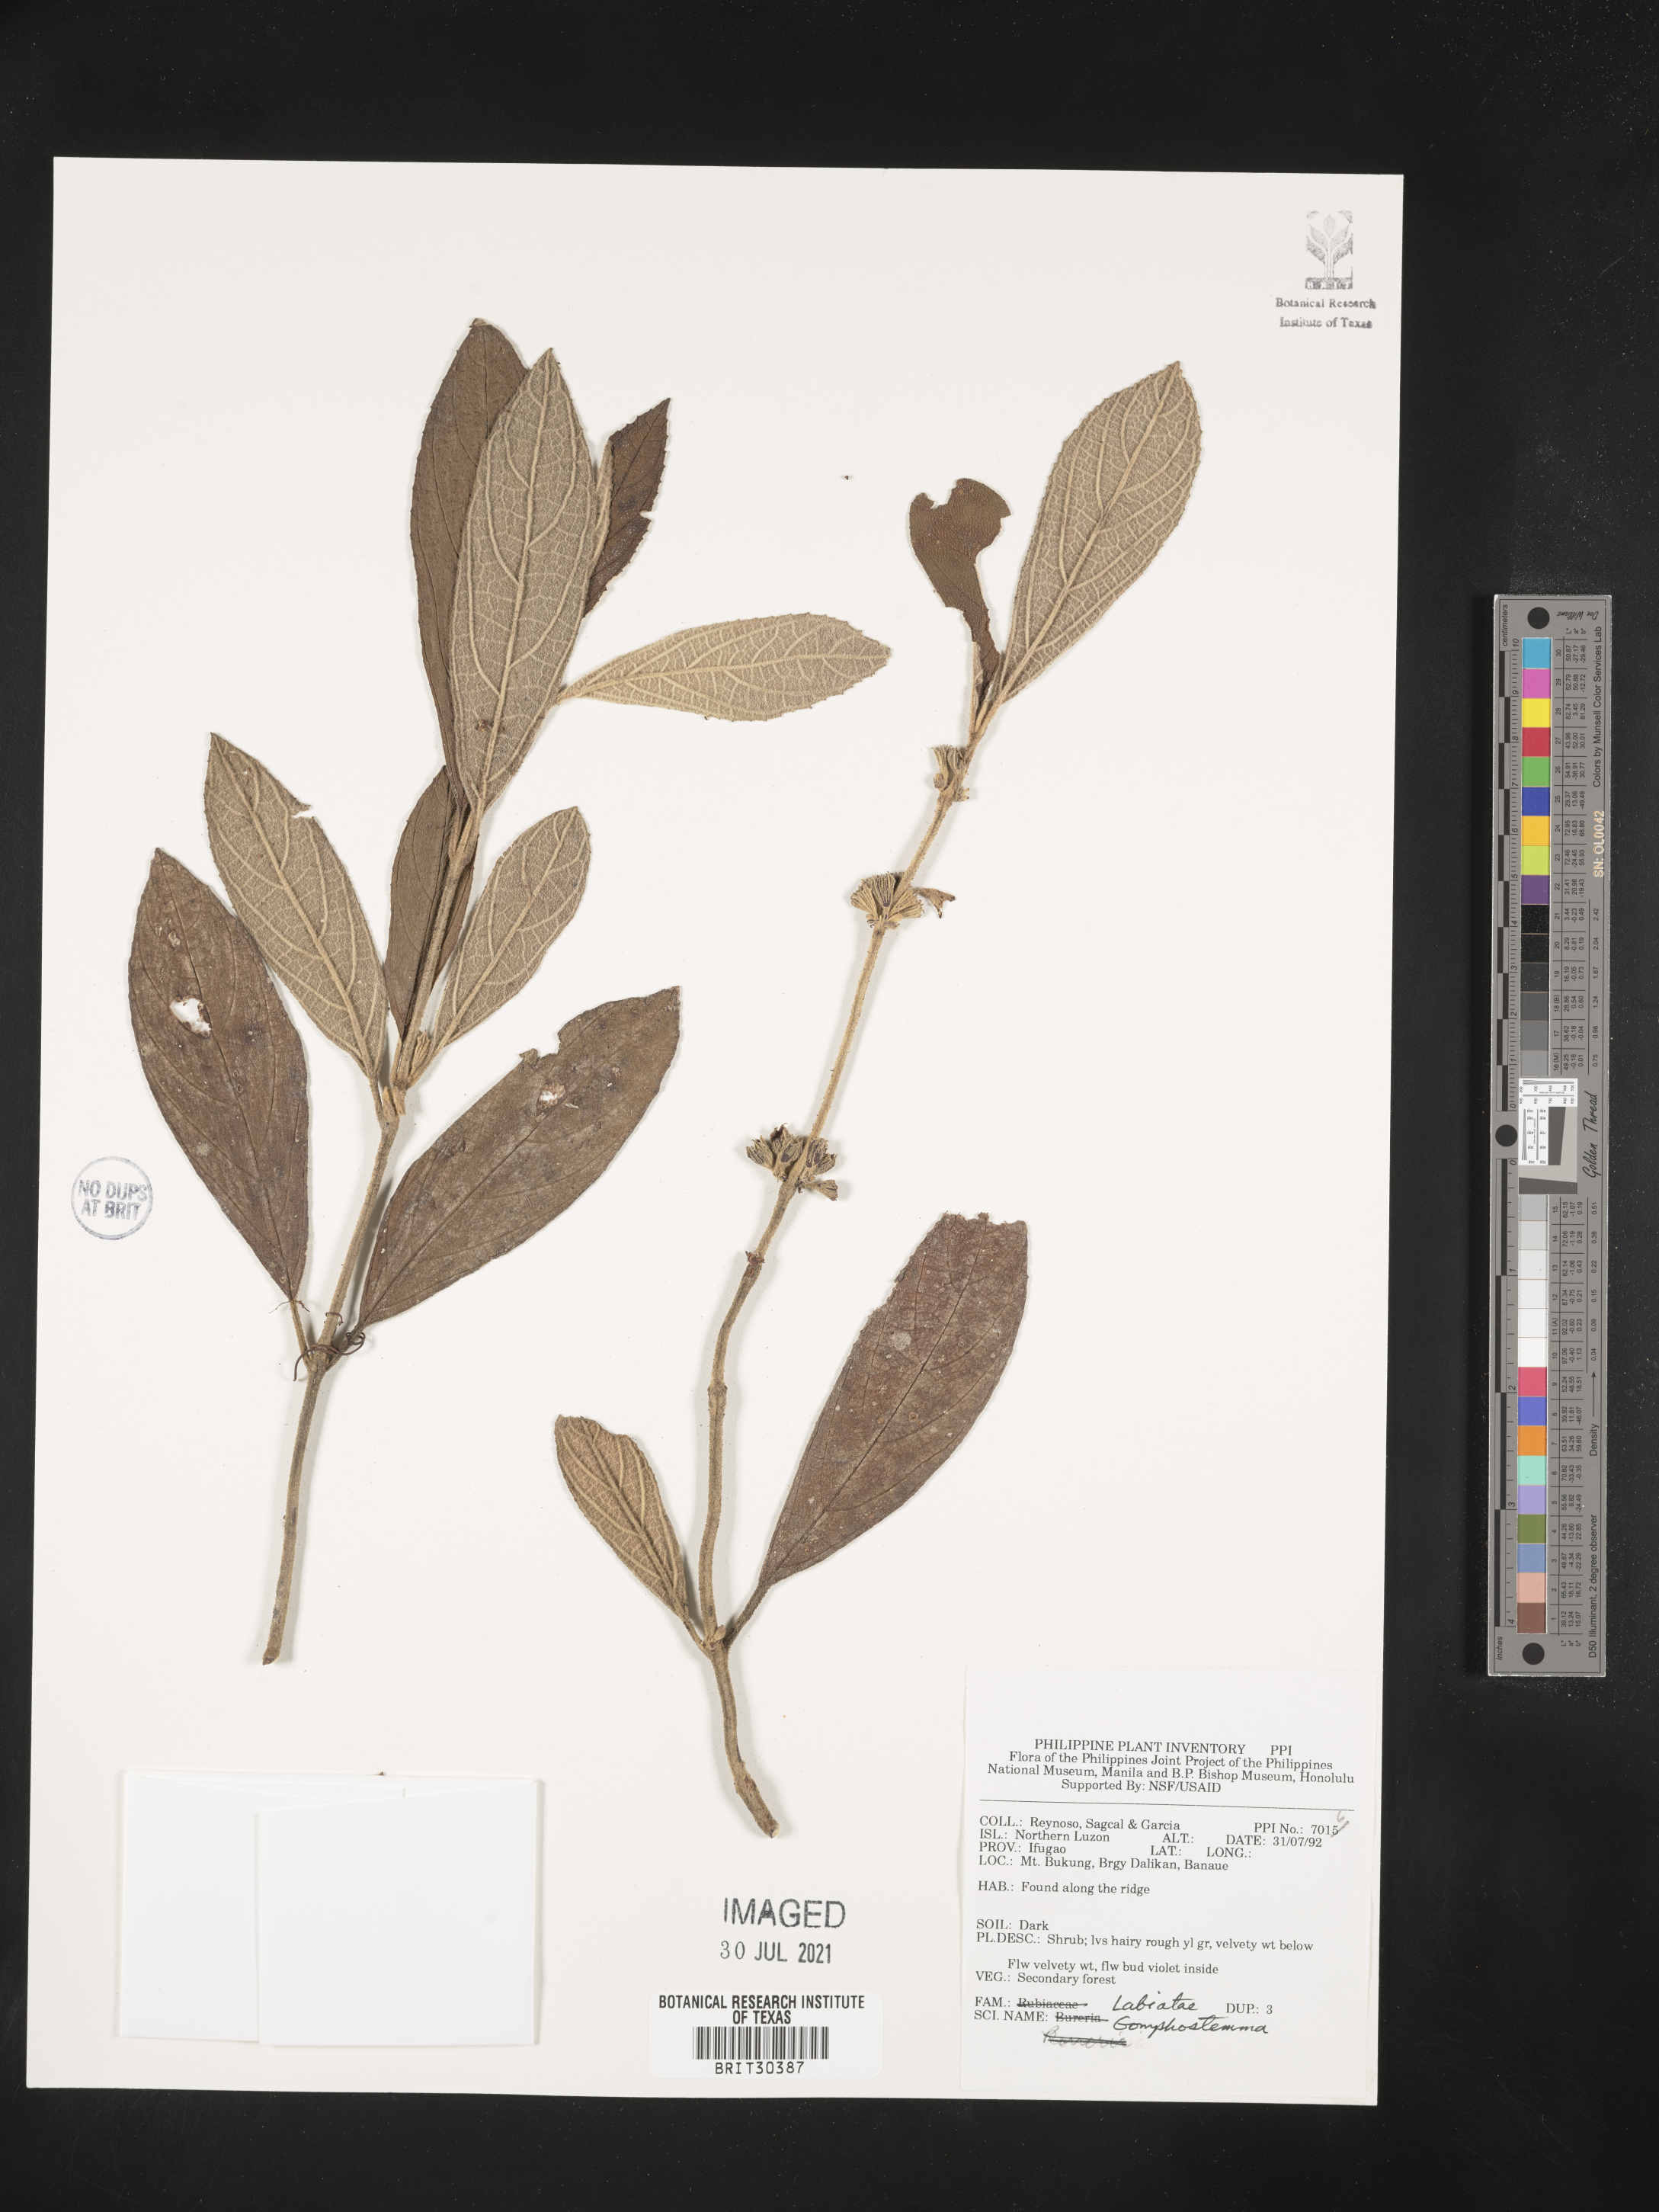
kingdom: Plantae
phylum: Tracheophyta
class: Magnoliopsida
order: Lamiales
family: Lamiaceae
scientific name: Lamiaceae
